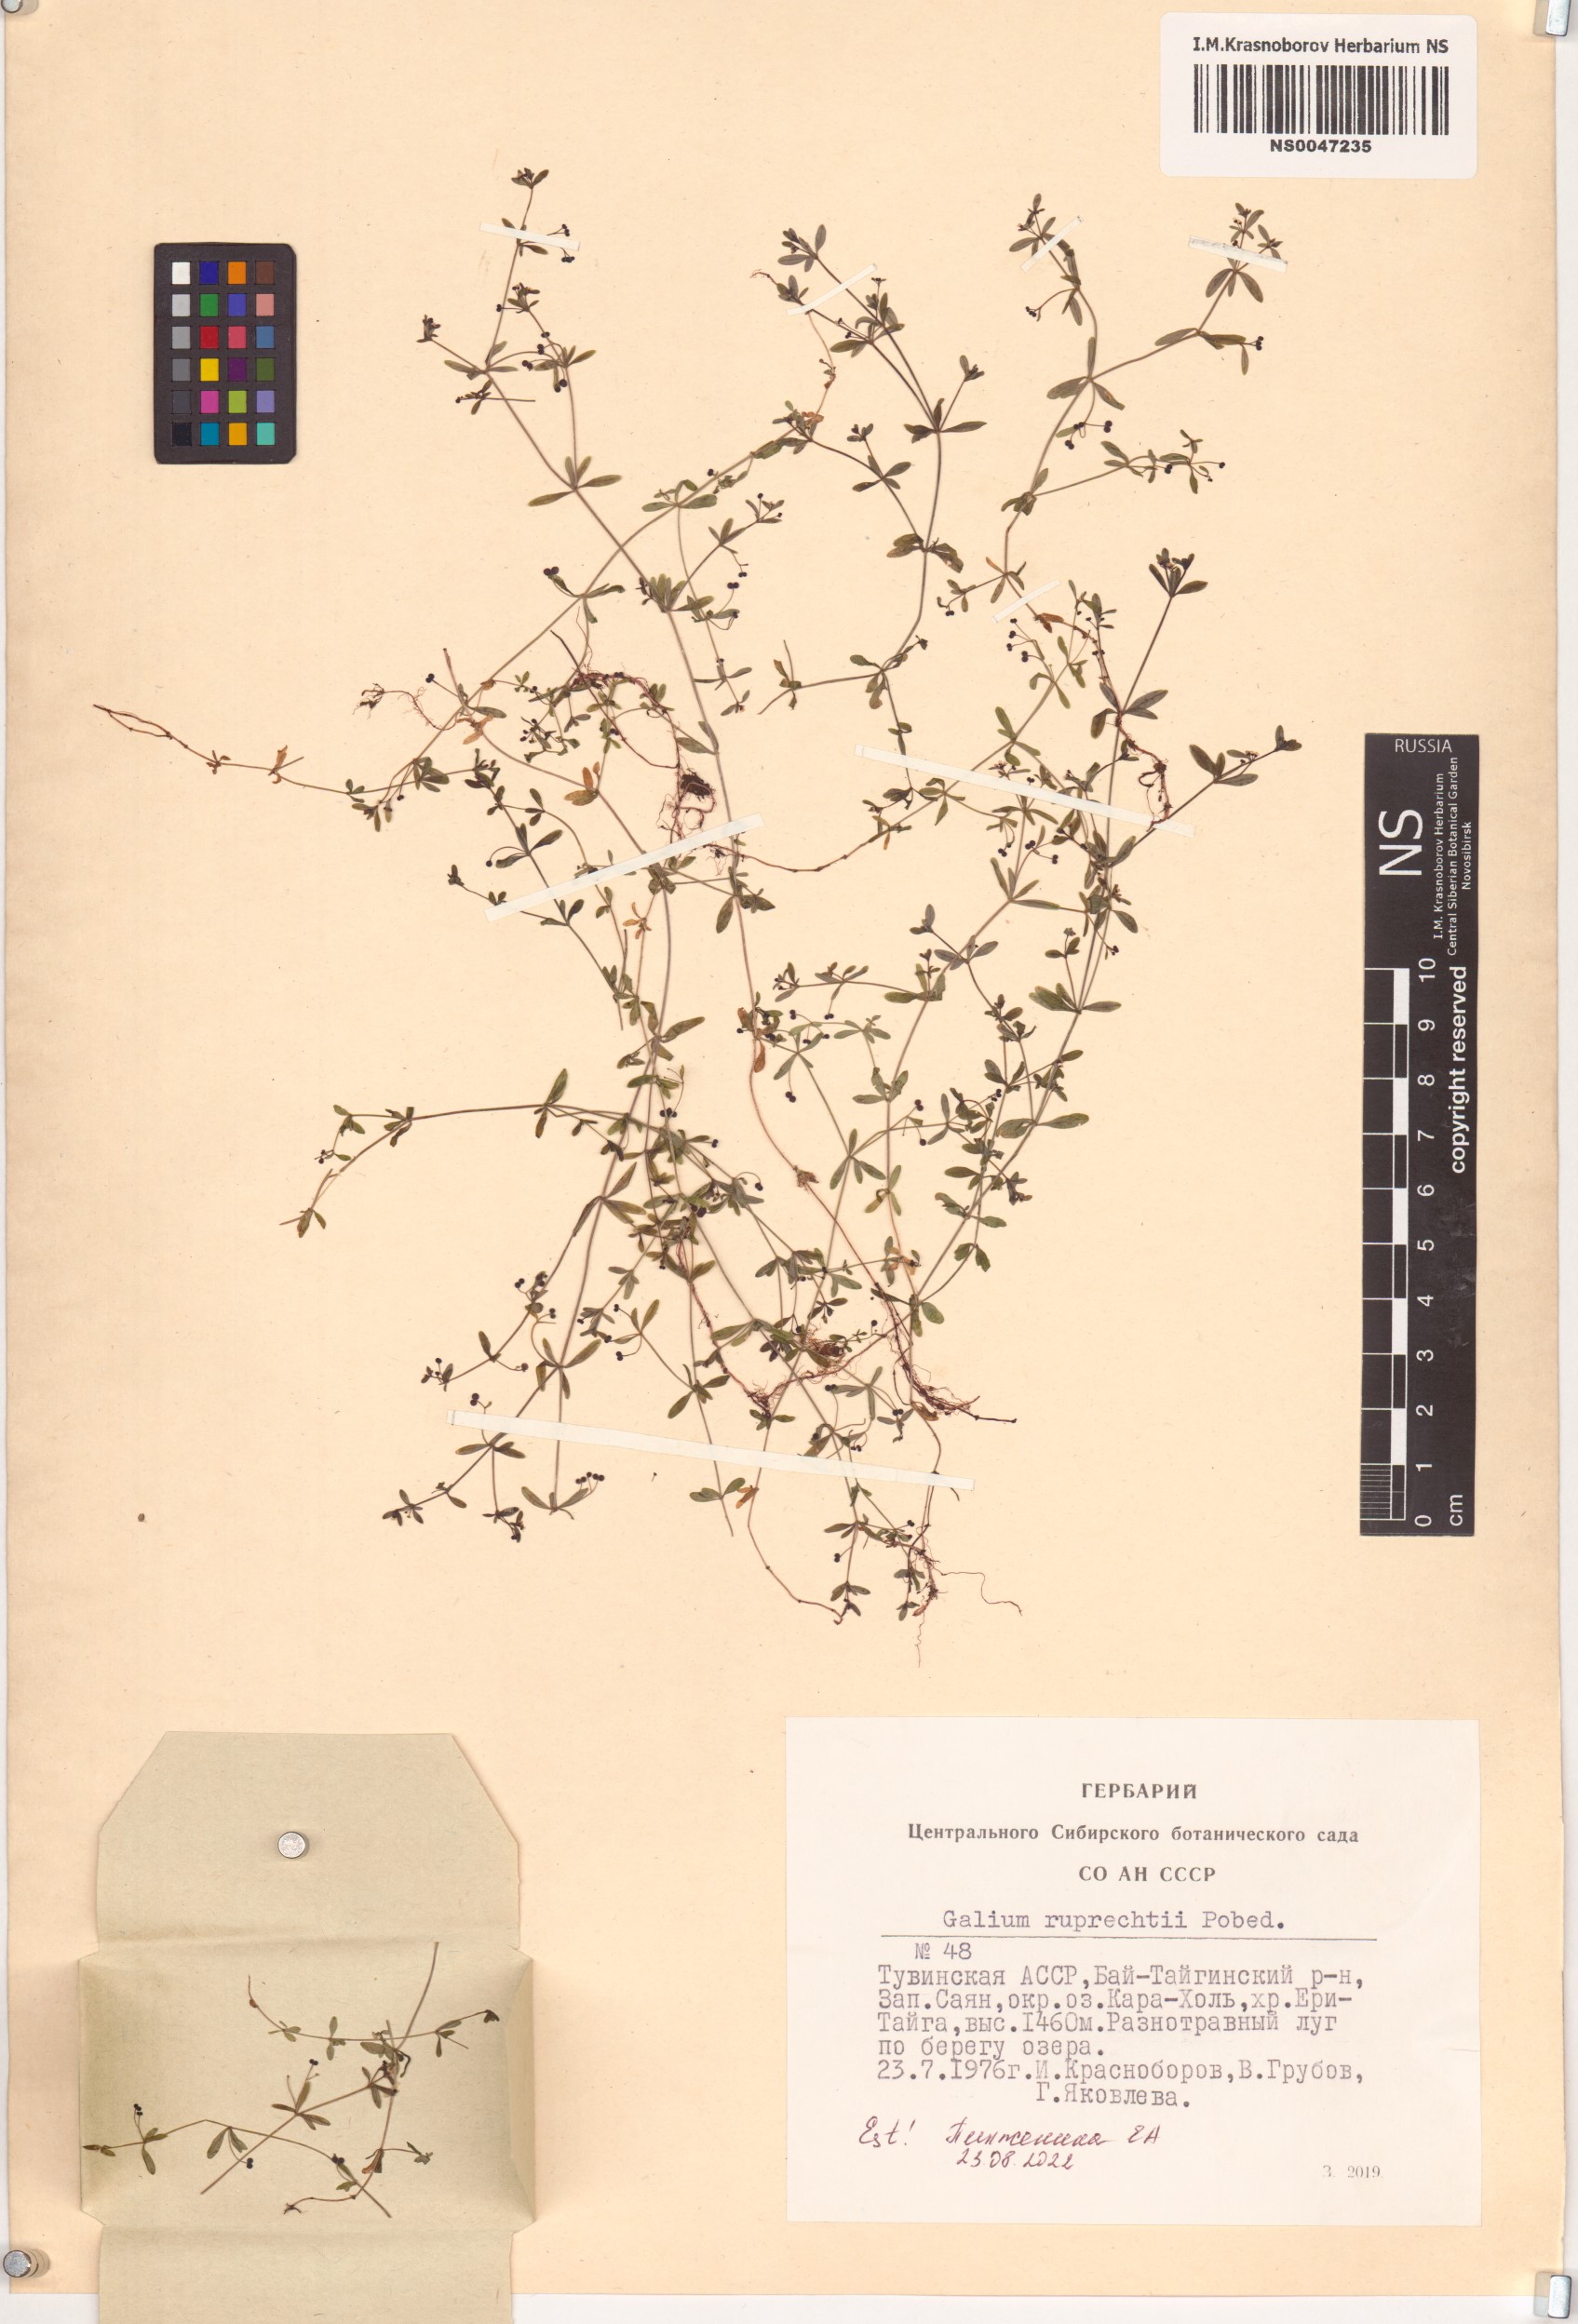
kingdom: Plantae
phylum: Tracheophyta
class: Magnoliopsida
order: Gentianales
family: Rubiaceae
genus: Galium
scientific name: Galium trifidum
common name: Small bedstraw
